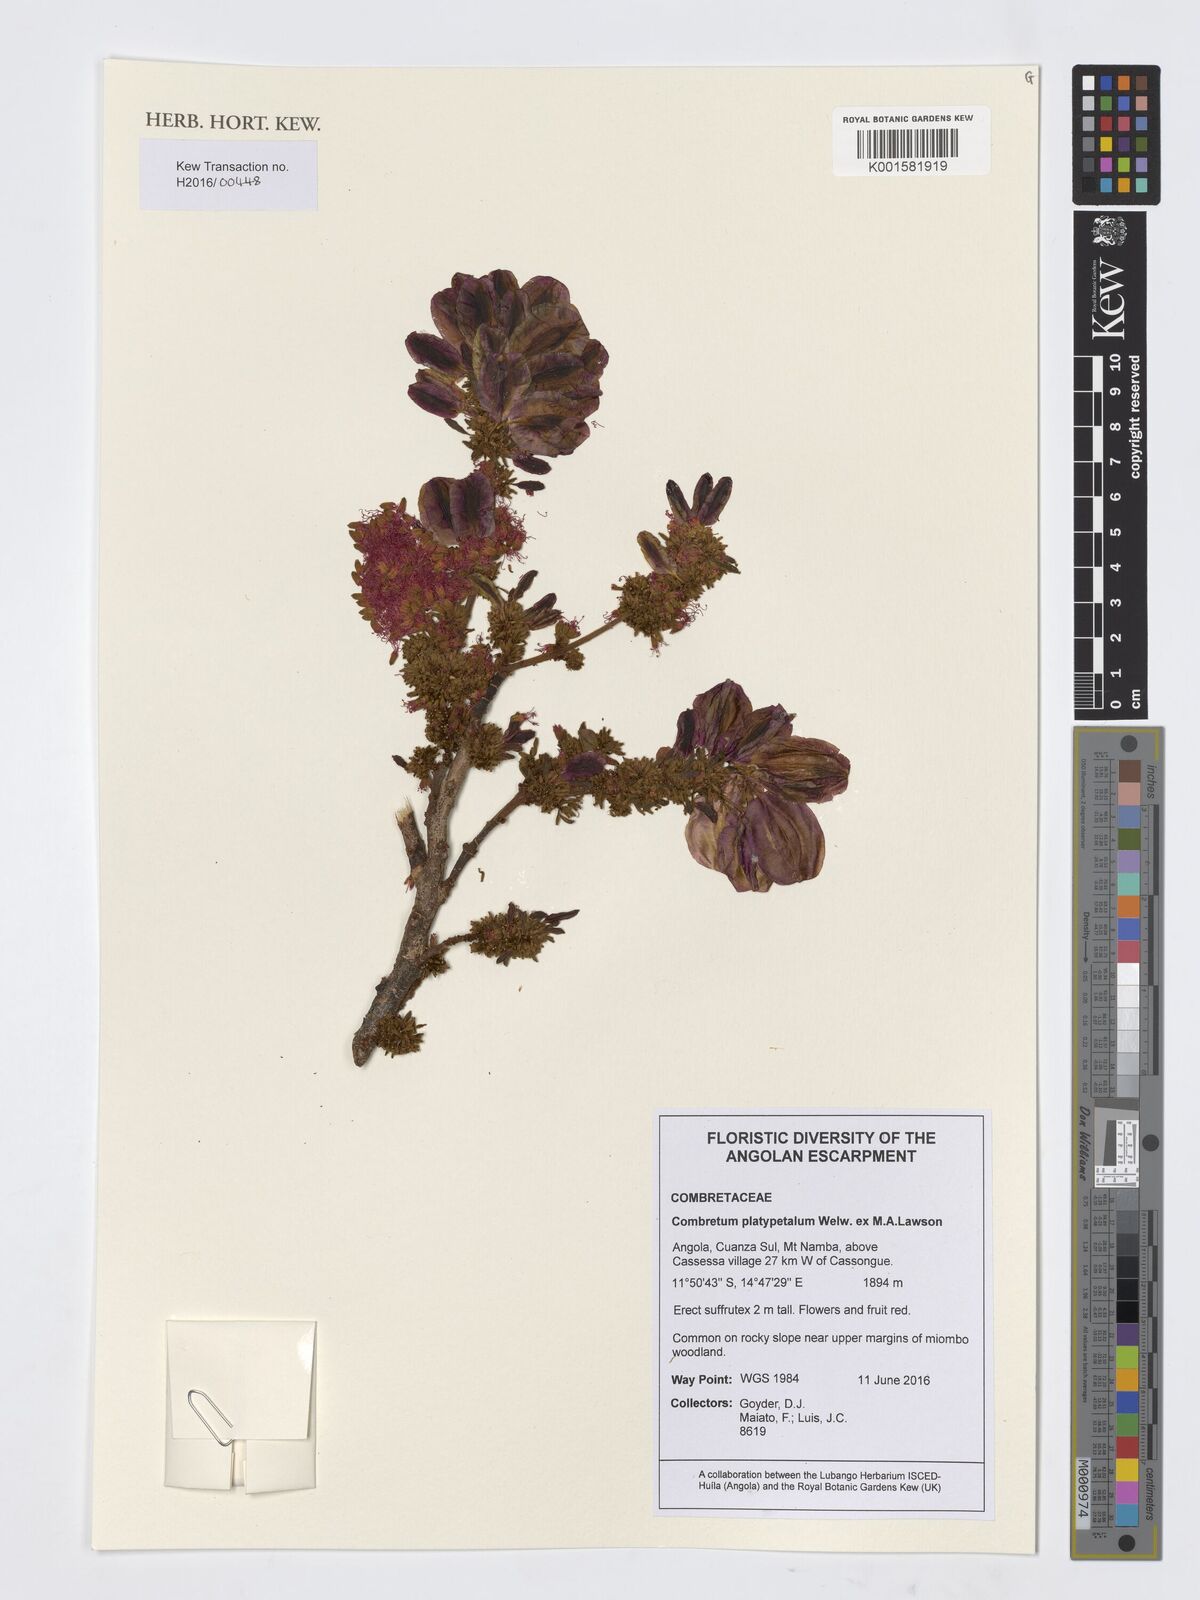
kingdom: Plantae
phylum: Tracheophyta
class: Magnoliopsida
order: Myrtales
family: Combretaceae
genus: Combretum
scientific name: Combretum platypetalum
